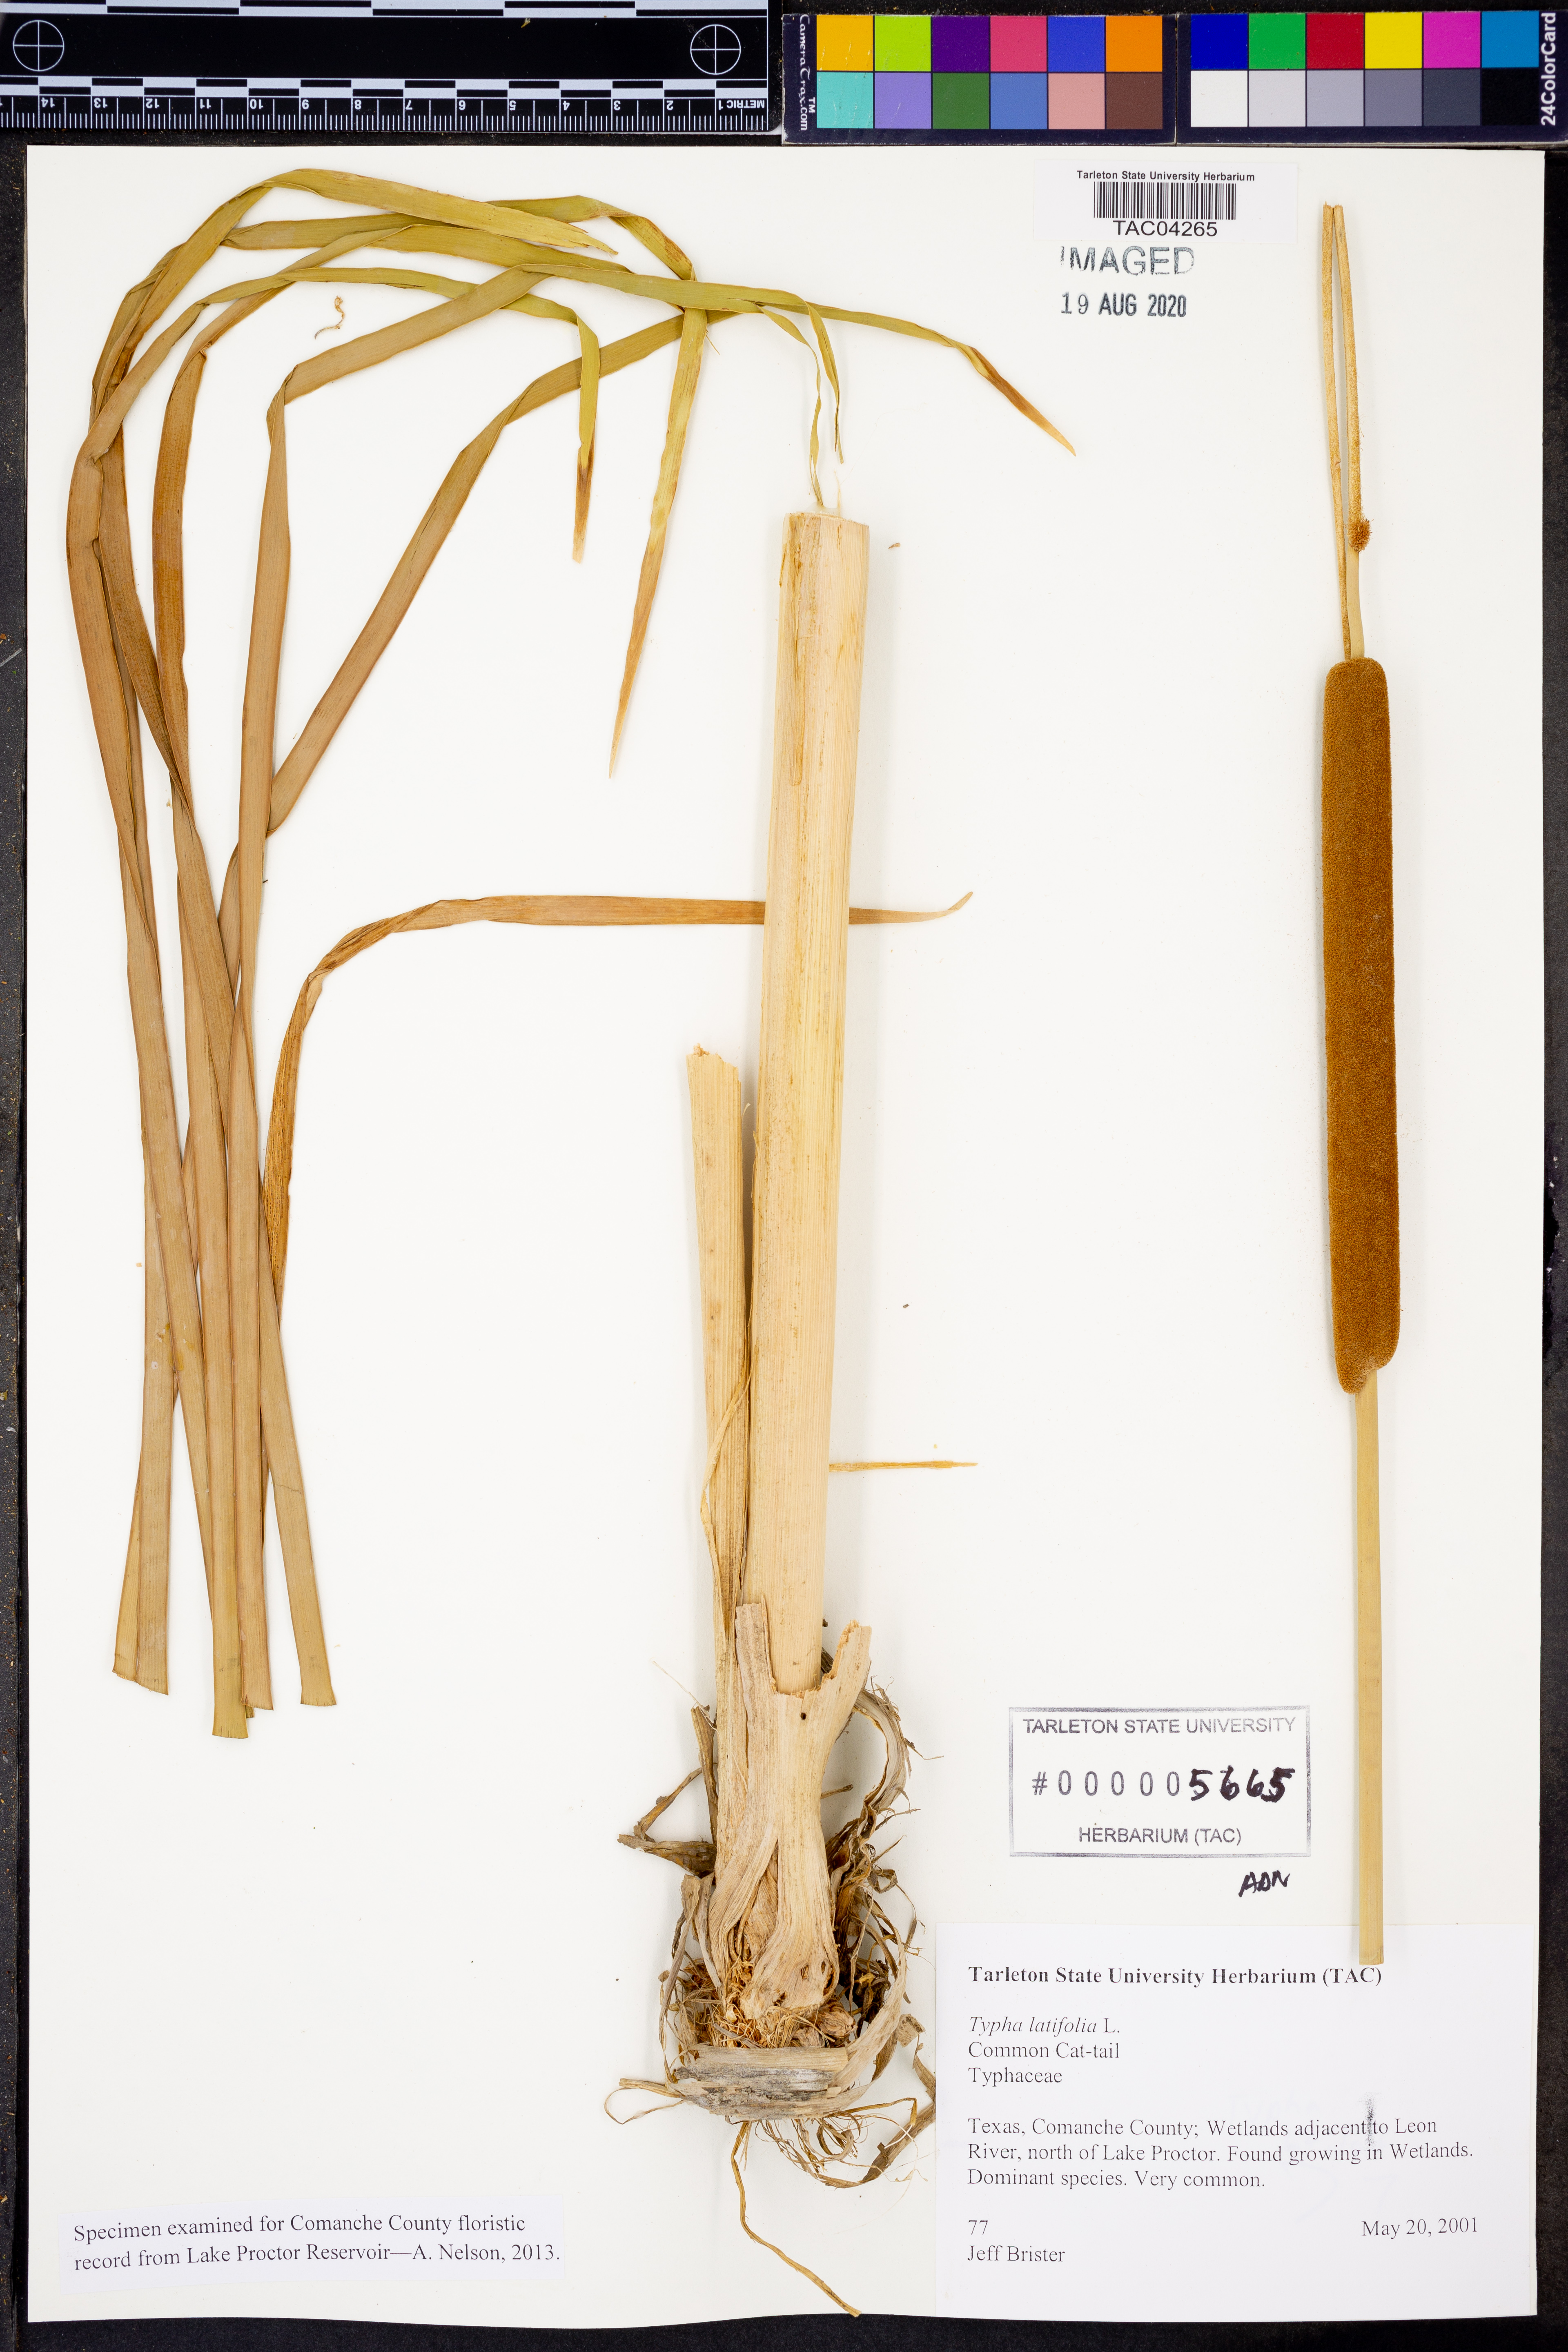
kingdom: Plantae
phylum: Tracheophyta
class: Liliopsida
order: Poales
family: Typhaceae
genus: Typha
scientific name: Typha latifolia
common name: Broadleaf cattail
